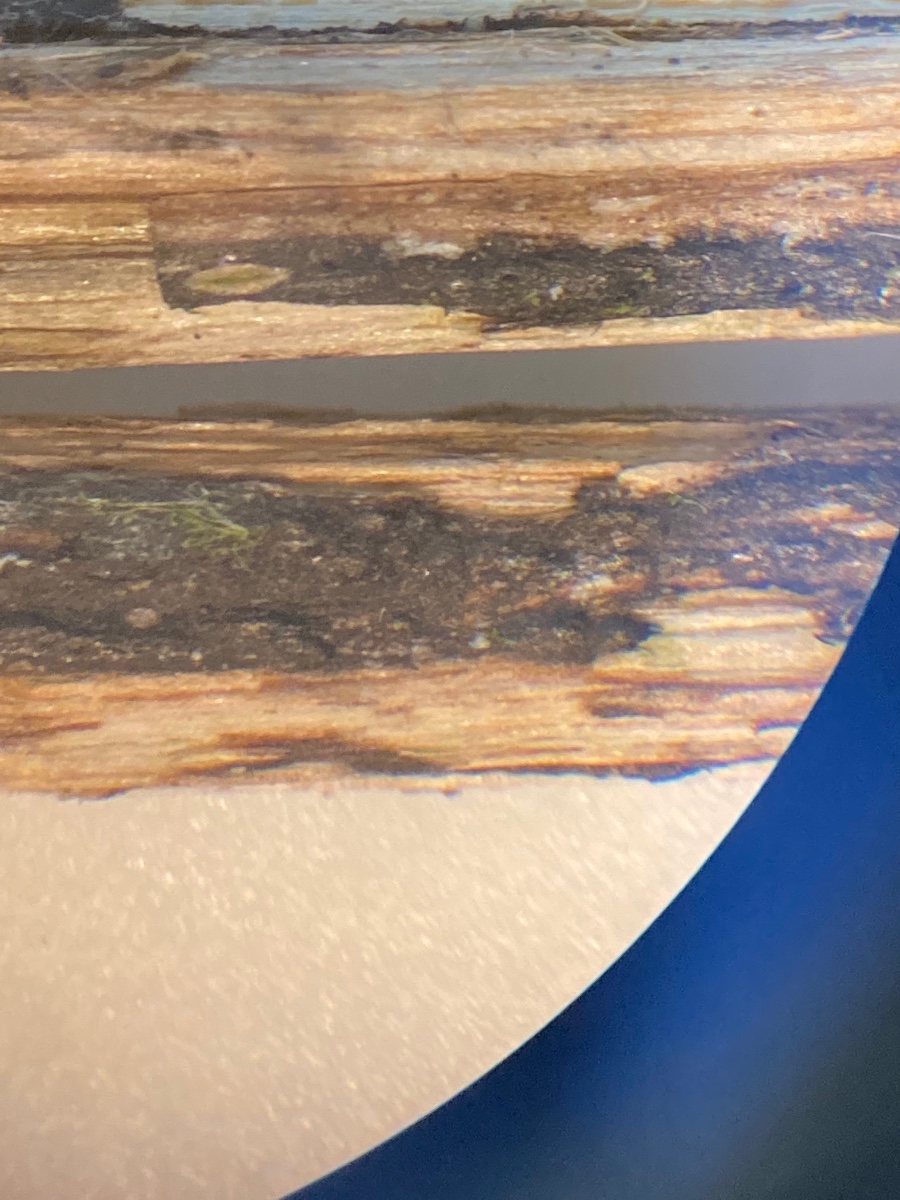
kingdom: Fungi
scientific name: Fungi
